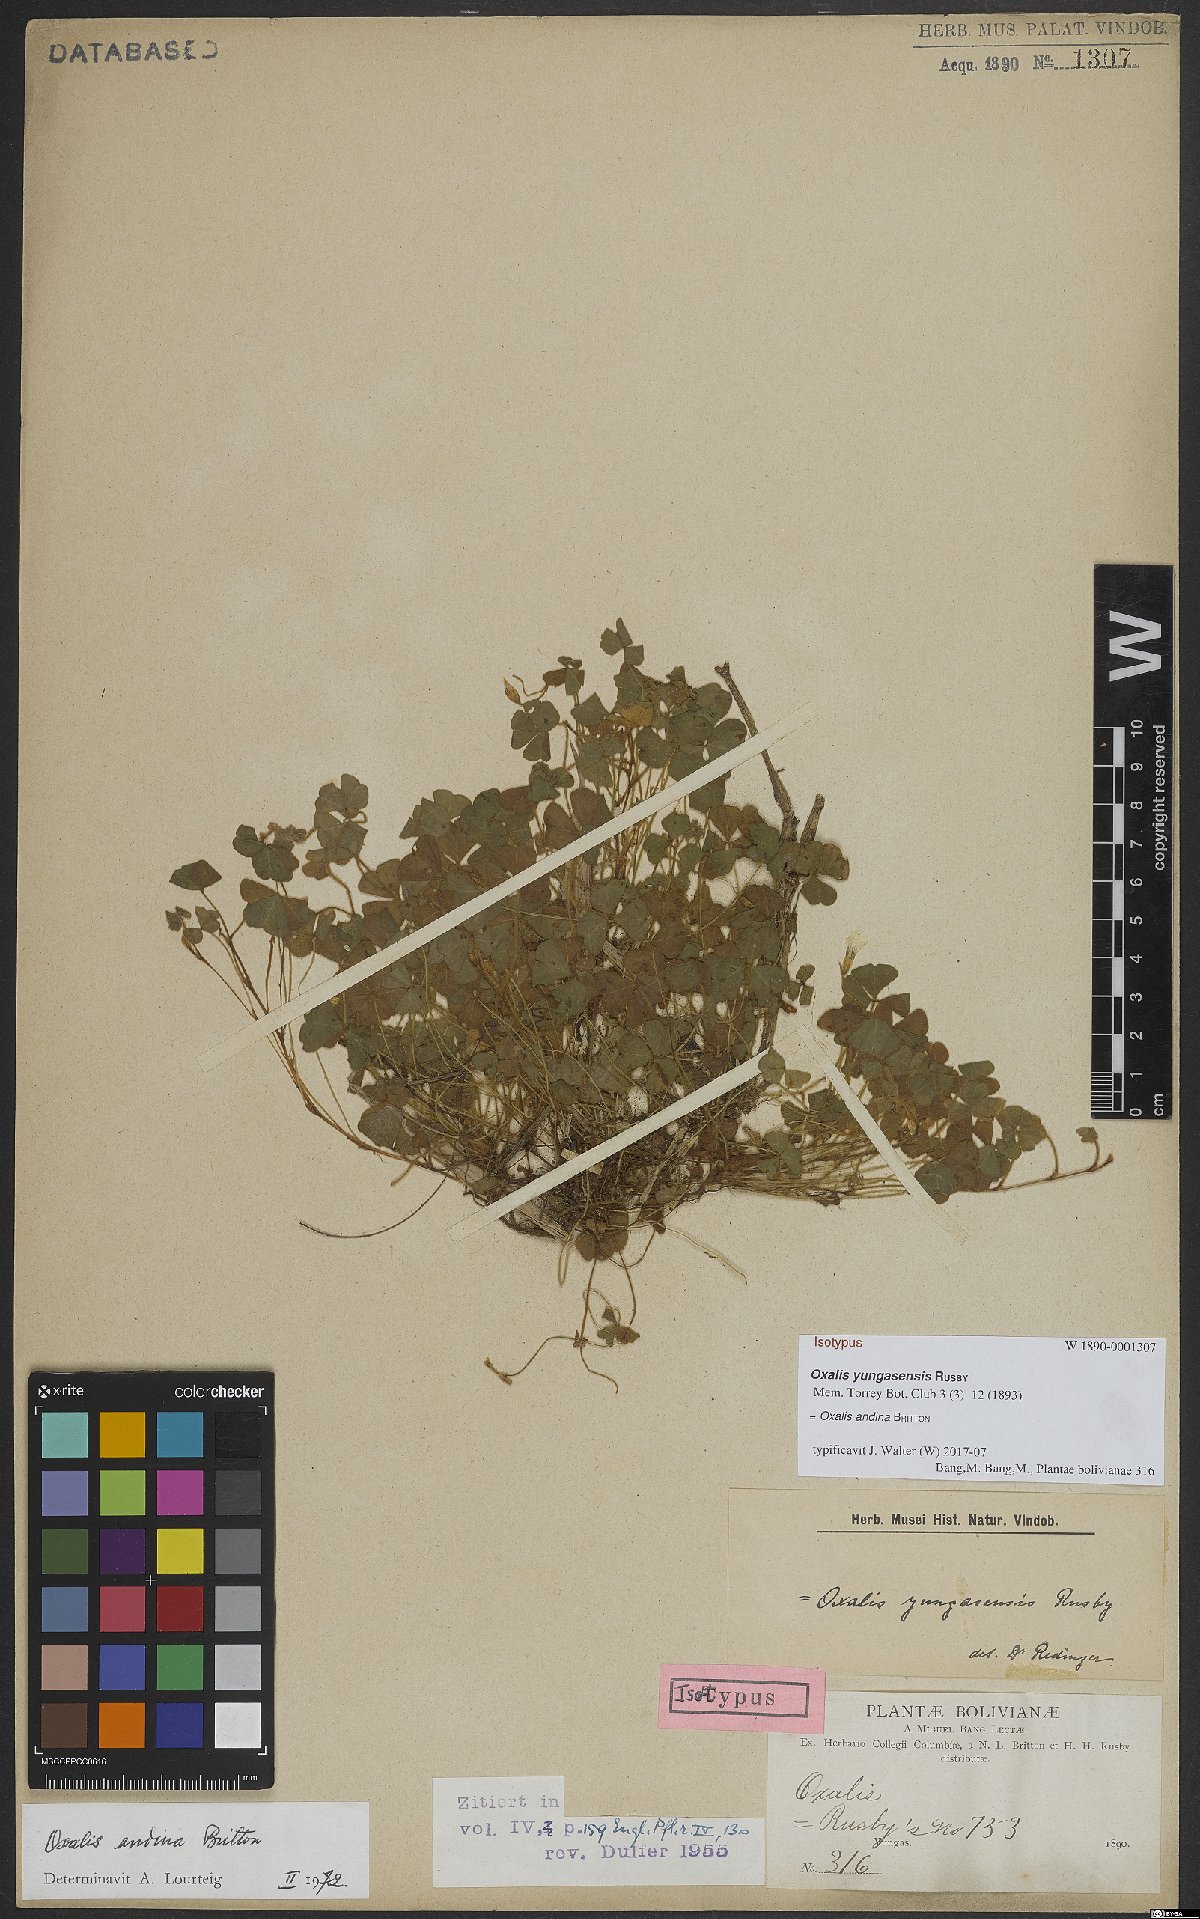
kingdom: Plantae
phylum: Tracheophyta
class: Magnoliopsida
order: Oxalidales
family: Oxalidaceae
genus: Oxalis
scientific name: Oxalis andina
